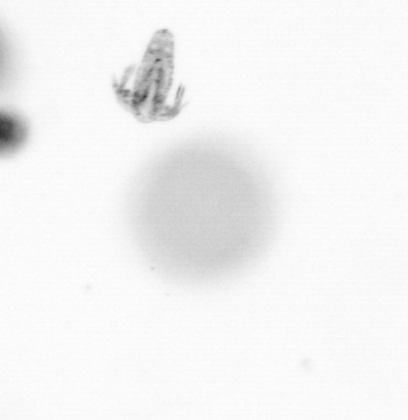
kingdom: Animalia
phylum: Arthropoda
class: Copepoda
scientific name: Copepoda
